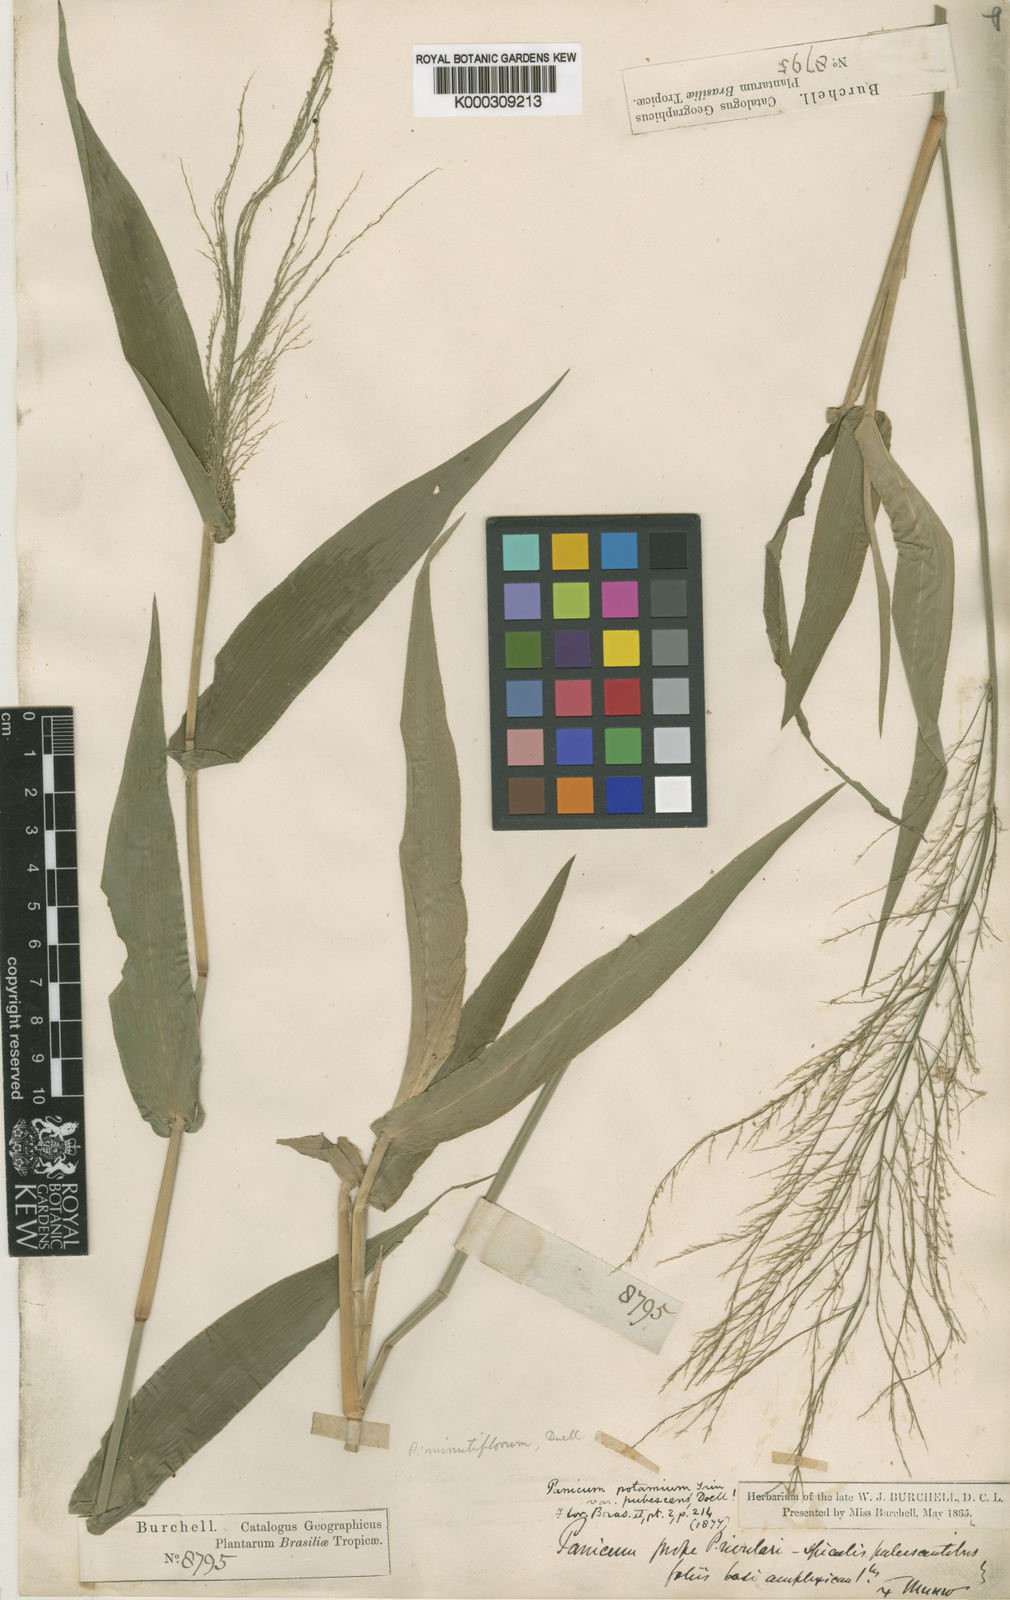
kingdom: Plantae
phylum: Tracheophyta
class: Liliopsida
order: Poales
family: Poaceae
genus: Rugoloa
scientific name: Rugoloa hylaeica
